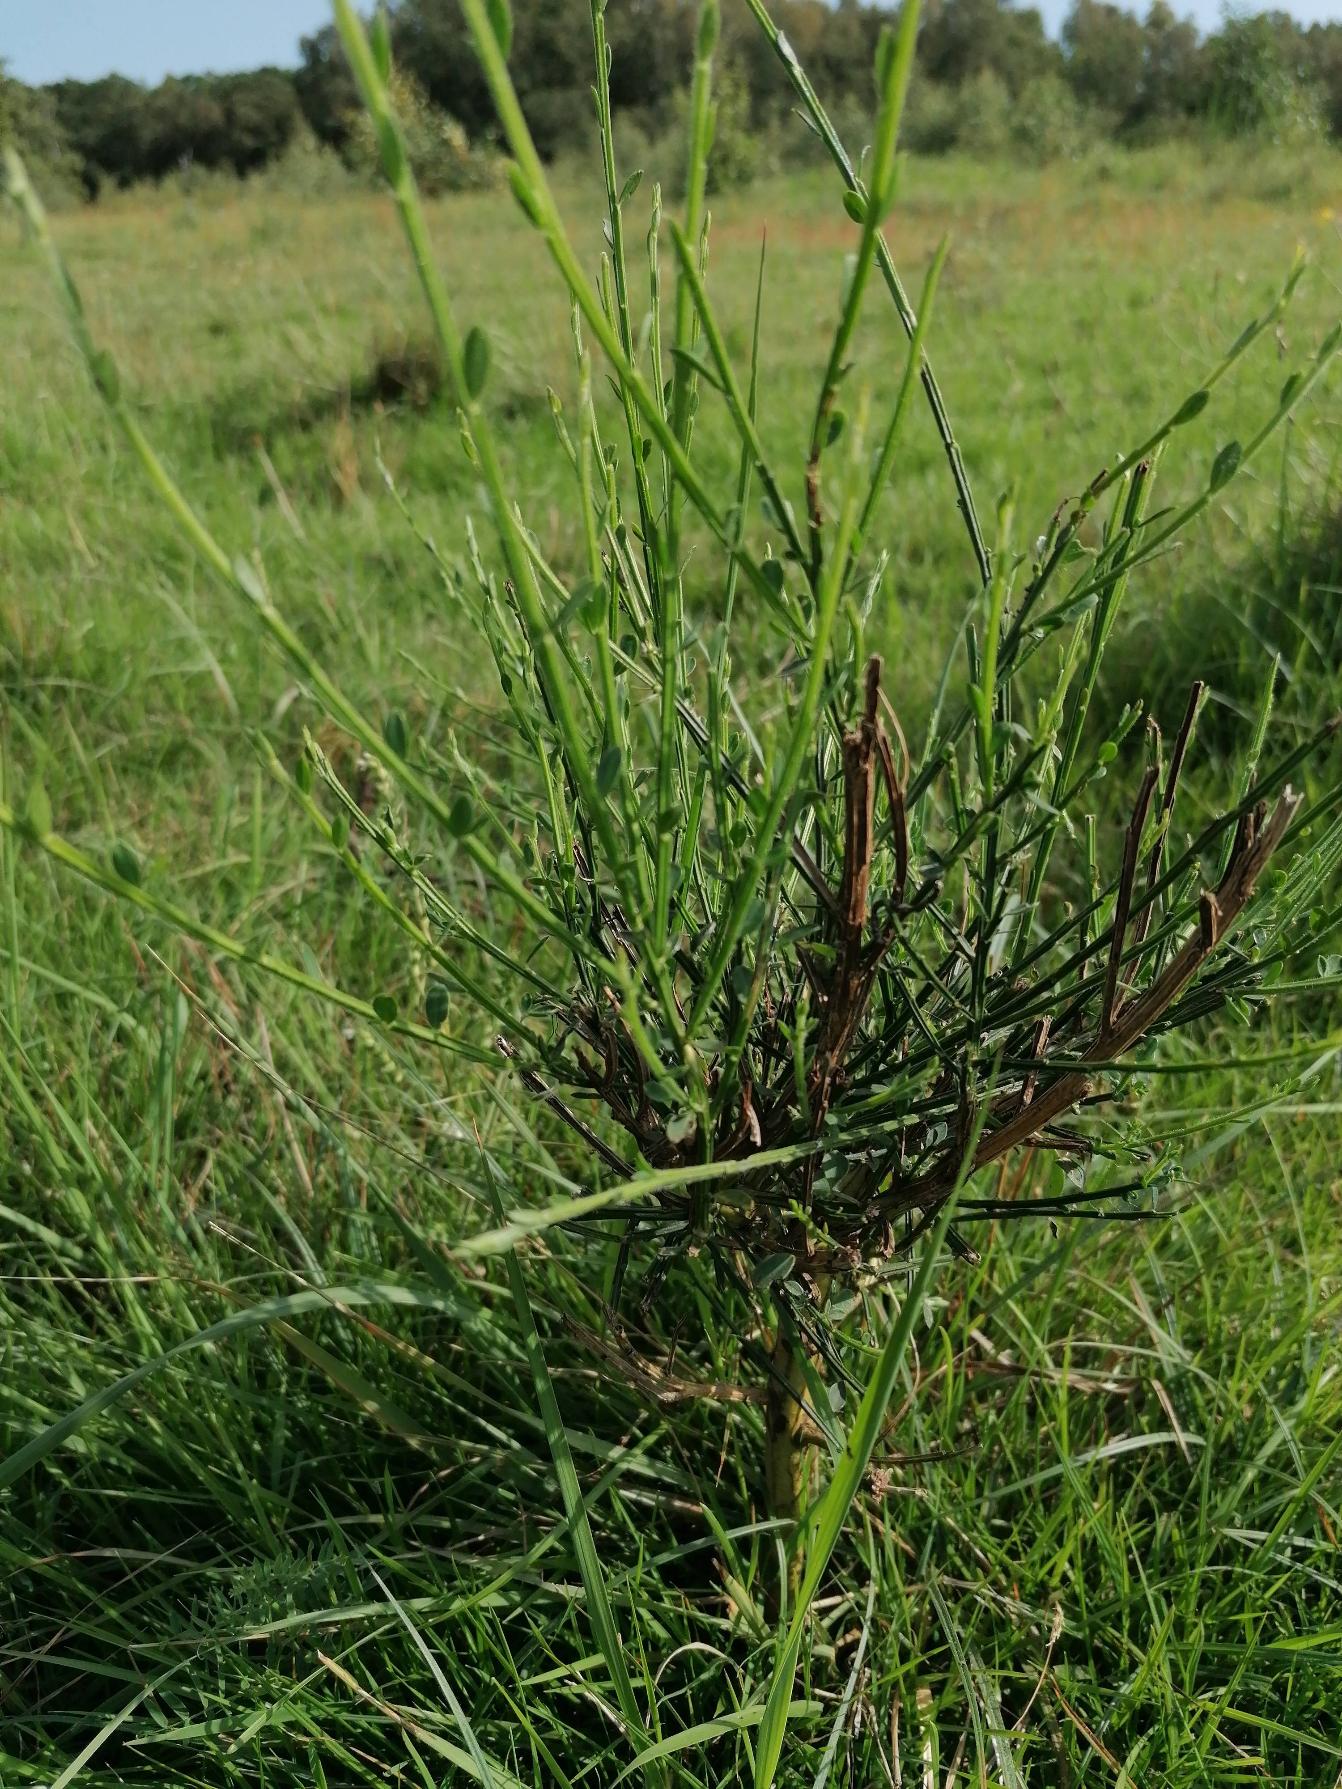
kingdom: Plantae
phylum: Tracheophyta
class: Magnoliopsida
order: Fabales
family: Fabaceae
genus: Cytisus
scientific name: Cytisus scoparius
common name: Almindelig gyvel
